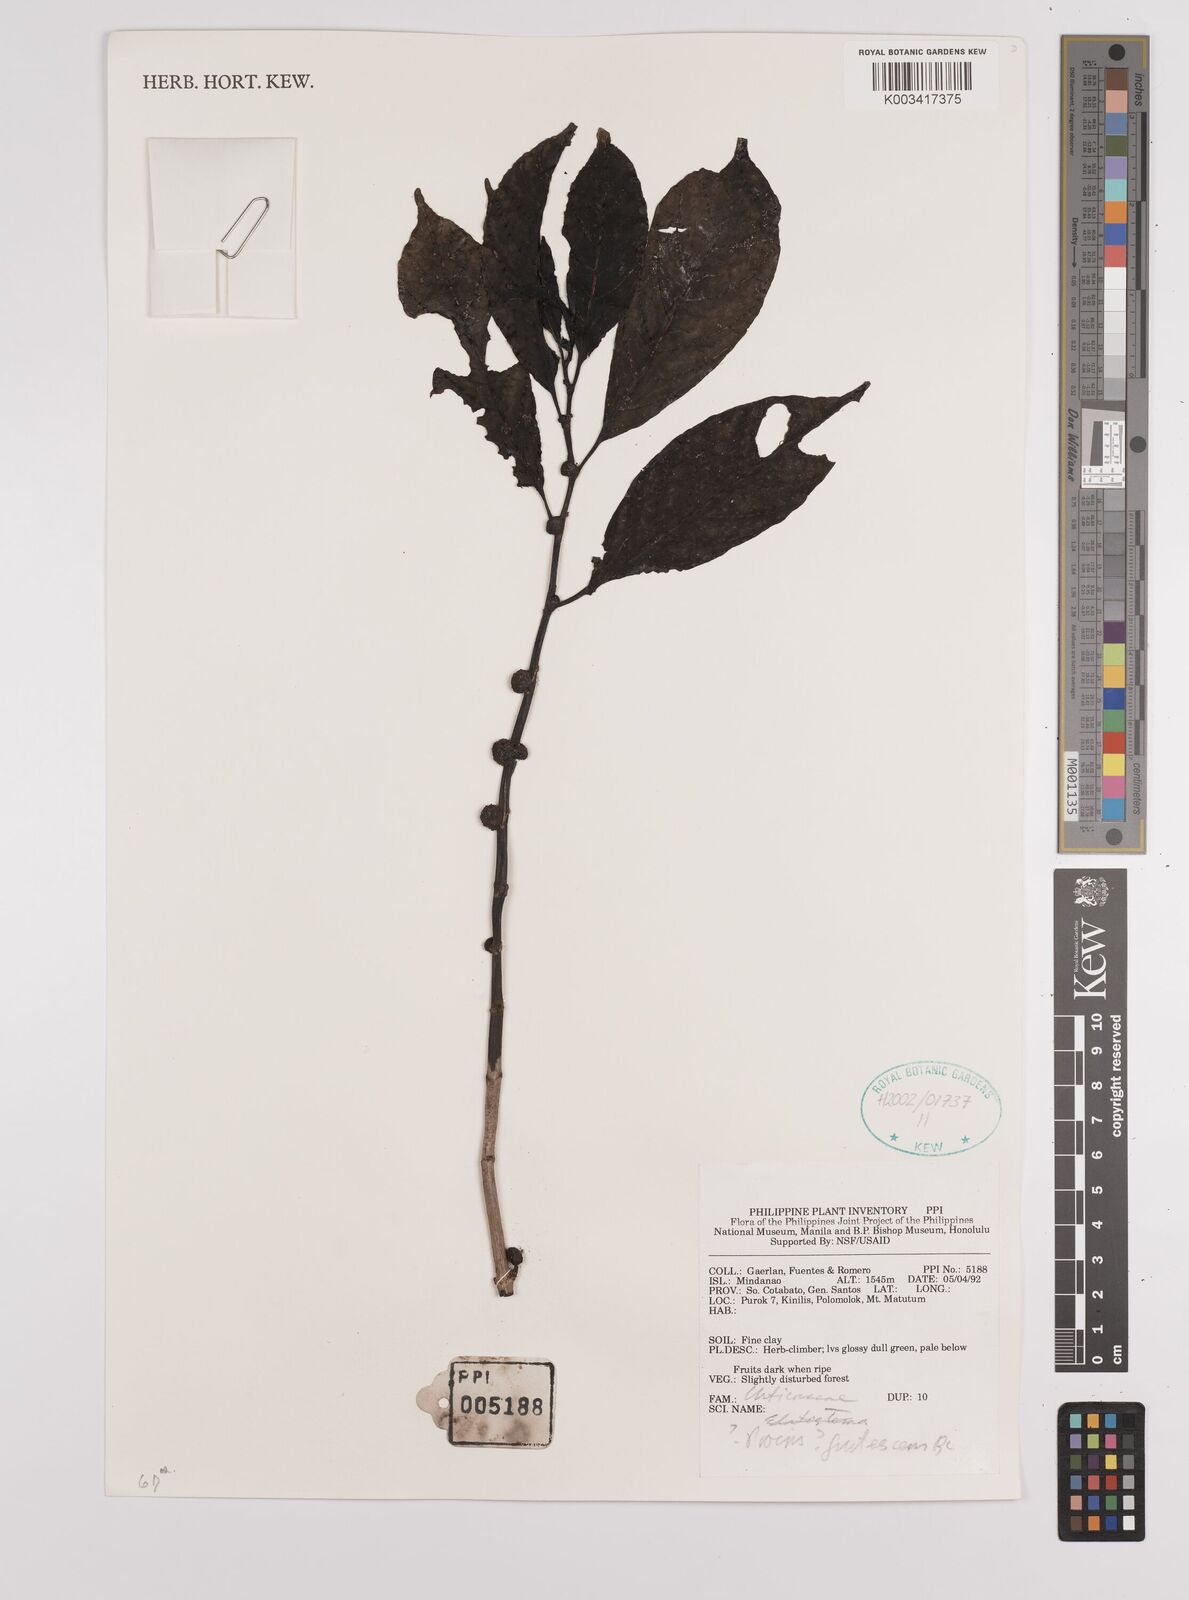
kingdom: Plantae
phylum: Tracheophyta
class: Magnoliopsida
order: Rosales
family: Urticaceae
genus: Procris
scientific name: Procris frutescens
